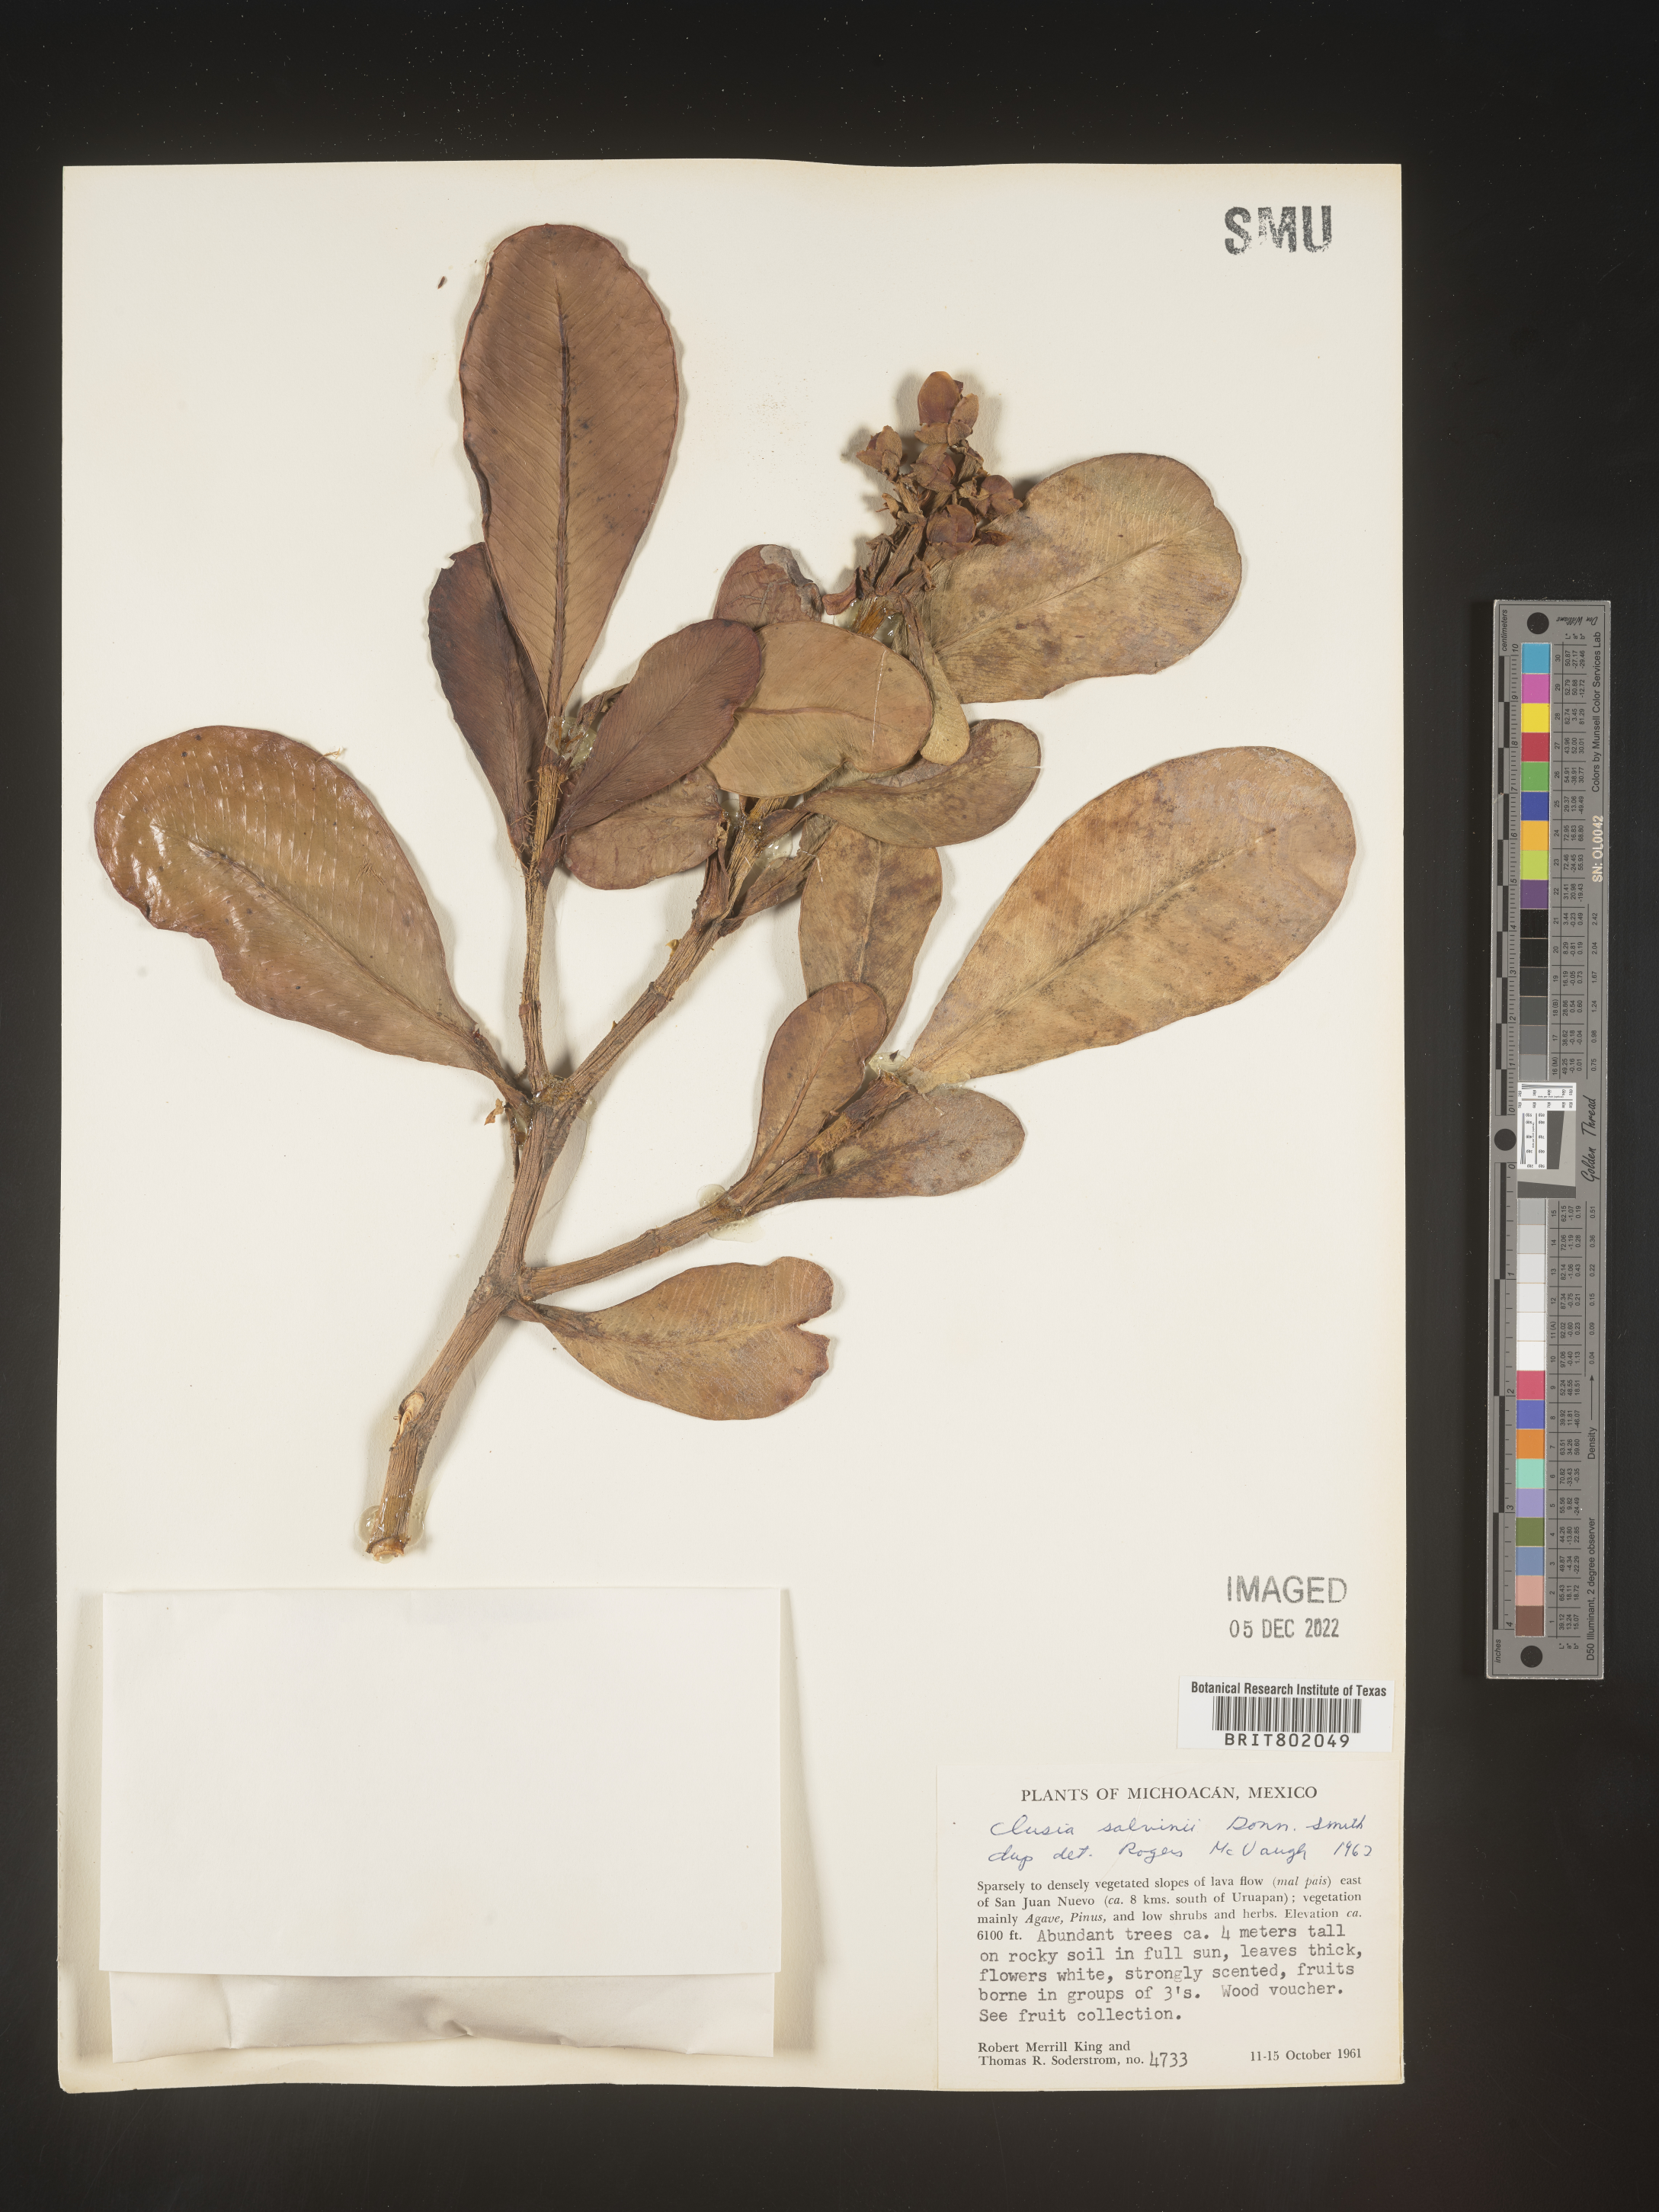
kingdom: Plantae
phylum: Tracheophyta
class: Magnoliopsida
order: Malpighiales
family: Clusiaceae
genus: Clusia
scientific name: Clusia
